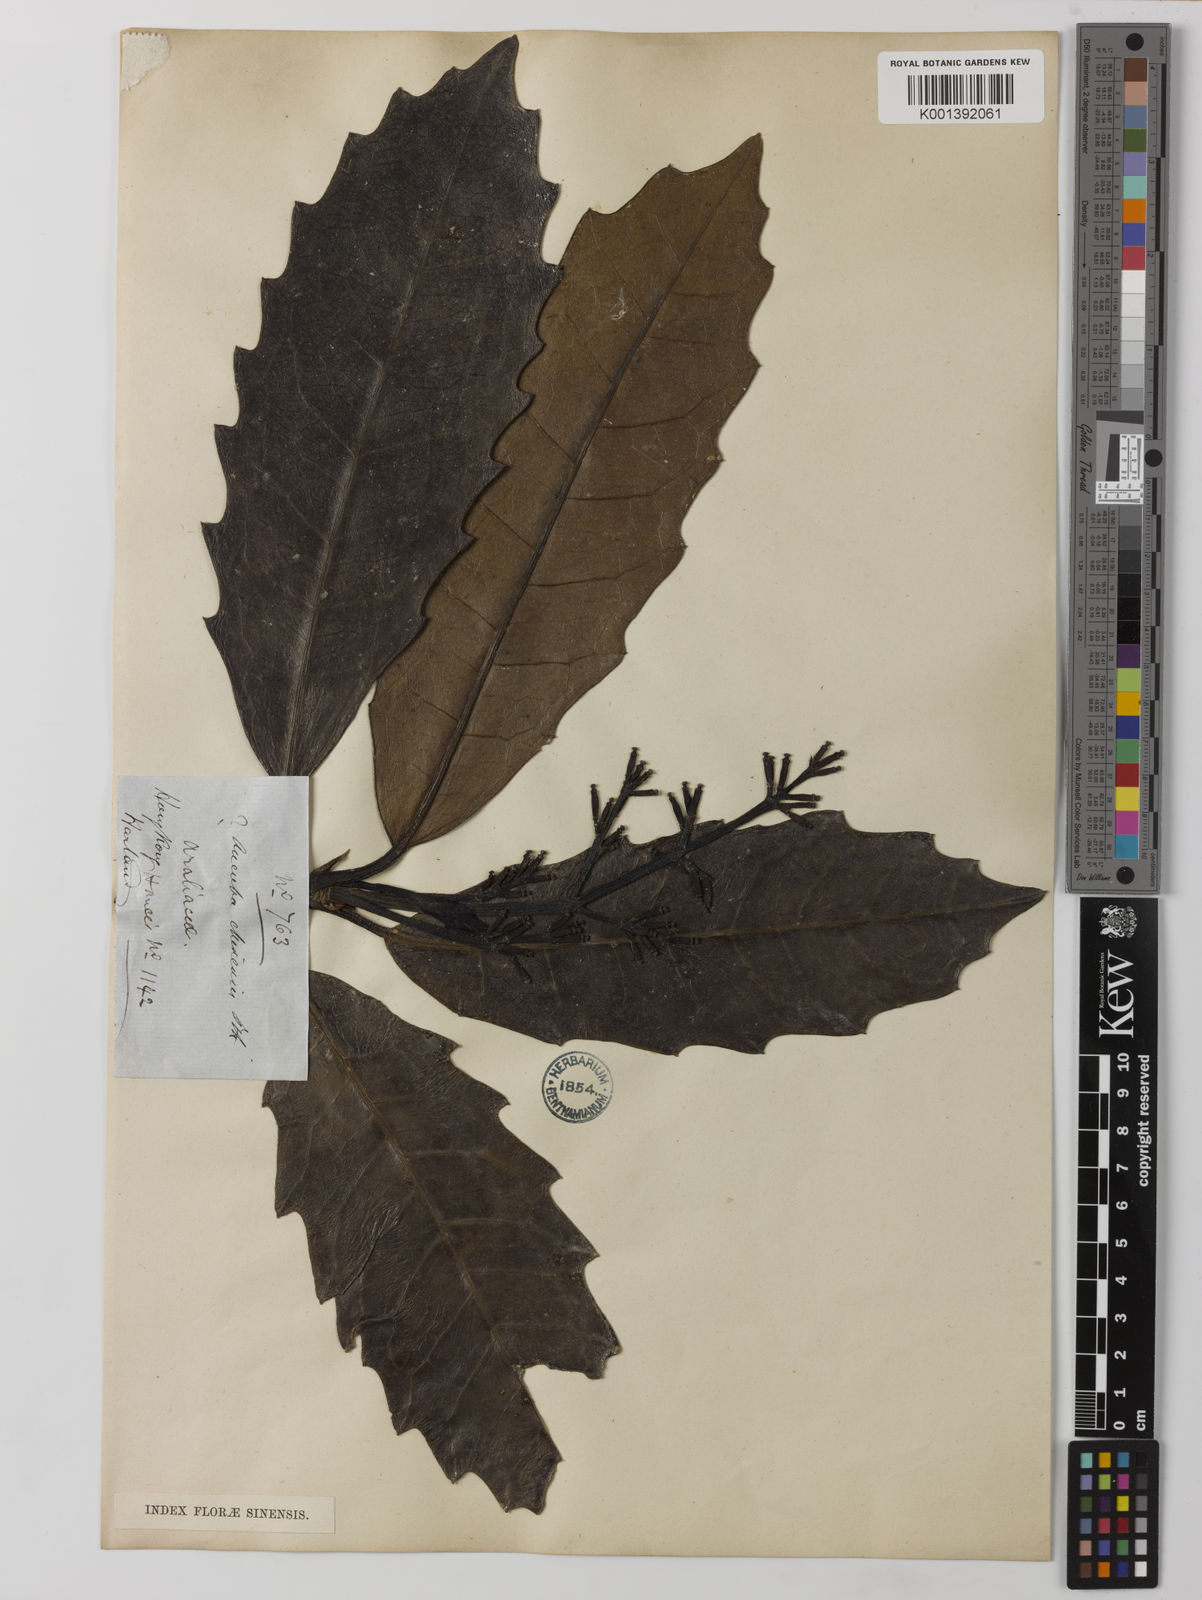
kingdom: Plantae
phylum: Tracheophyta
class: Magnoliopsida
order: Garryales
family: Garryaceae
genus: Aucuba
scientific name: Aucuba chinensis
